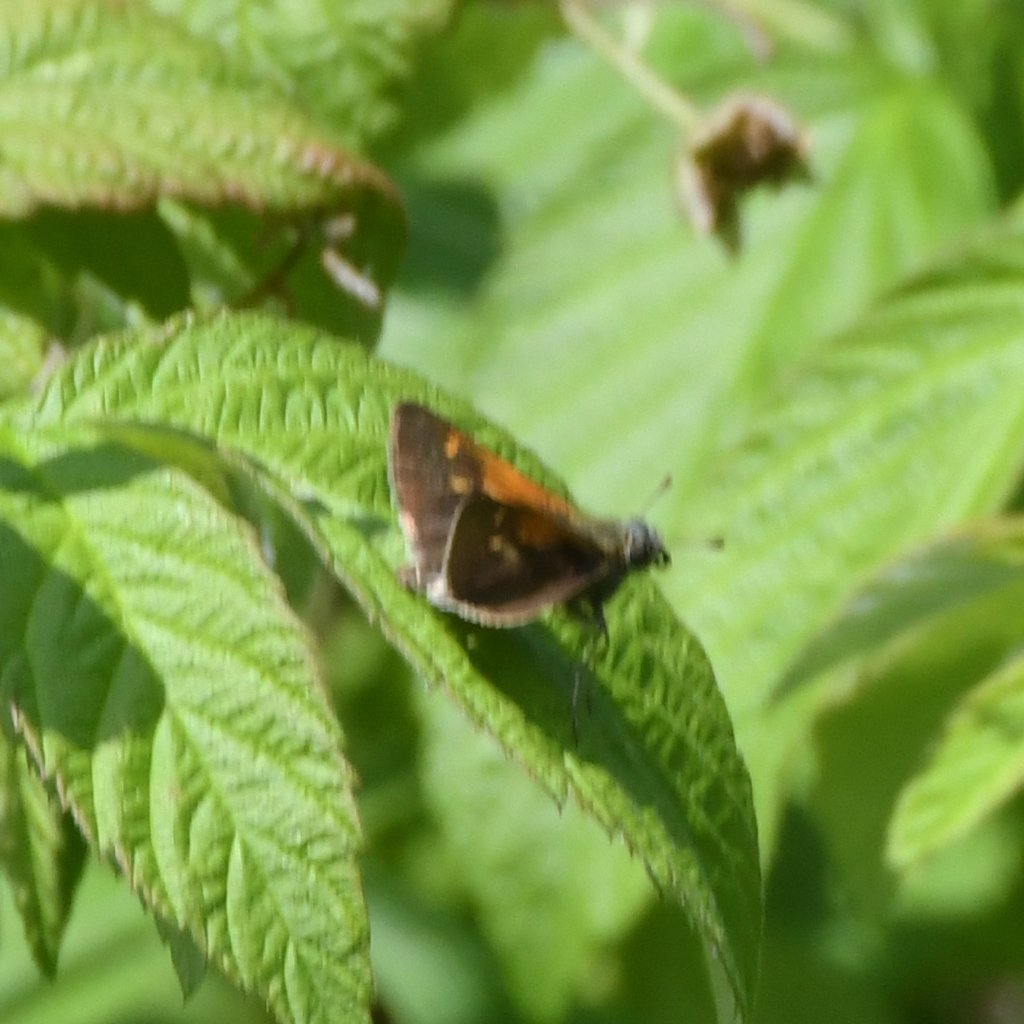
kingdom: Animalia
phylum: Arthropoda
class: Insecta
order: Lepidoptera
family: Hesperiidae
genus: Polites
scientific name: Polites themistocles
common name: Tawny-edged Skipper
